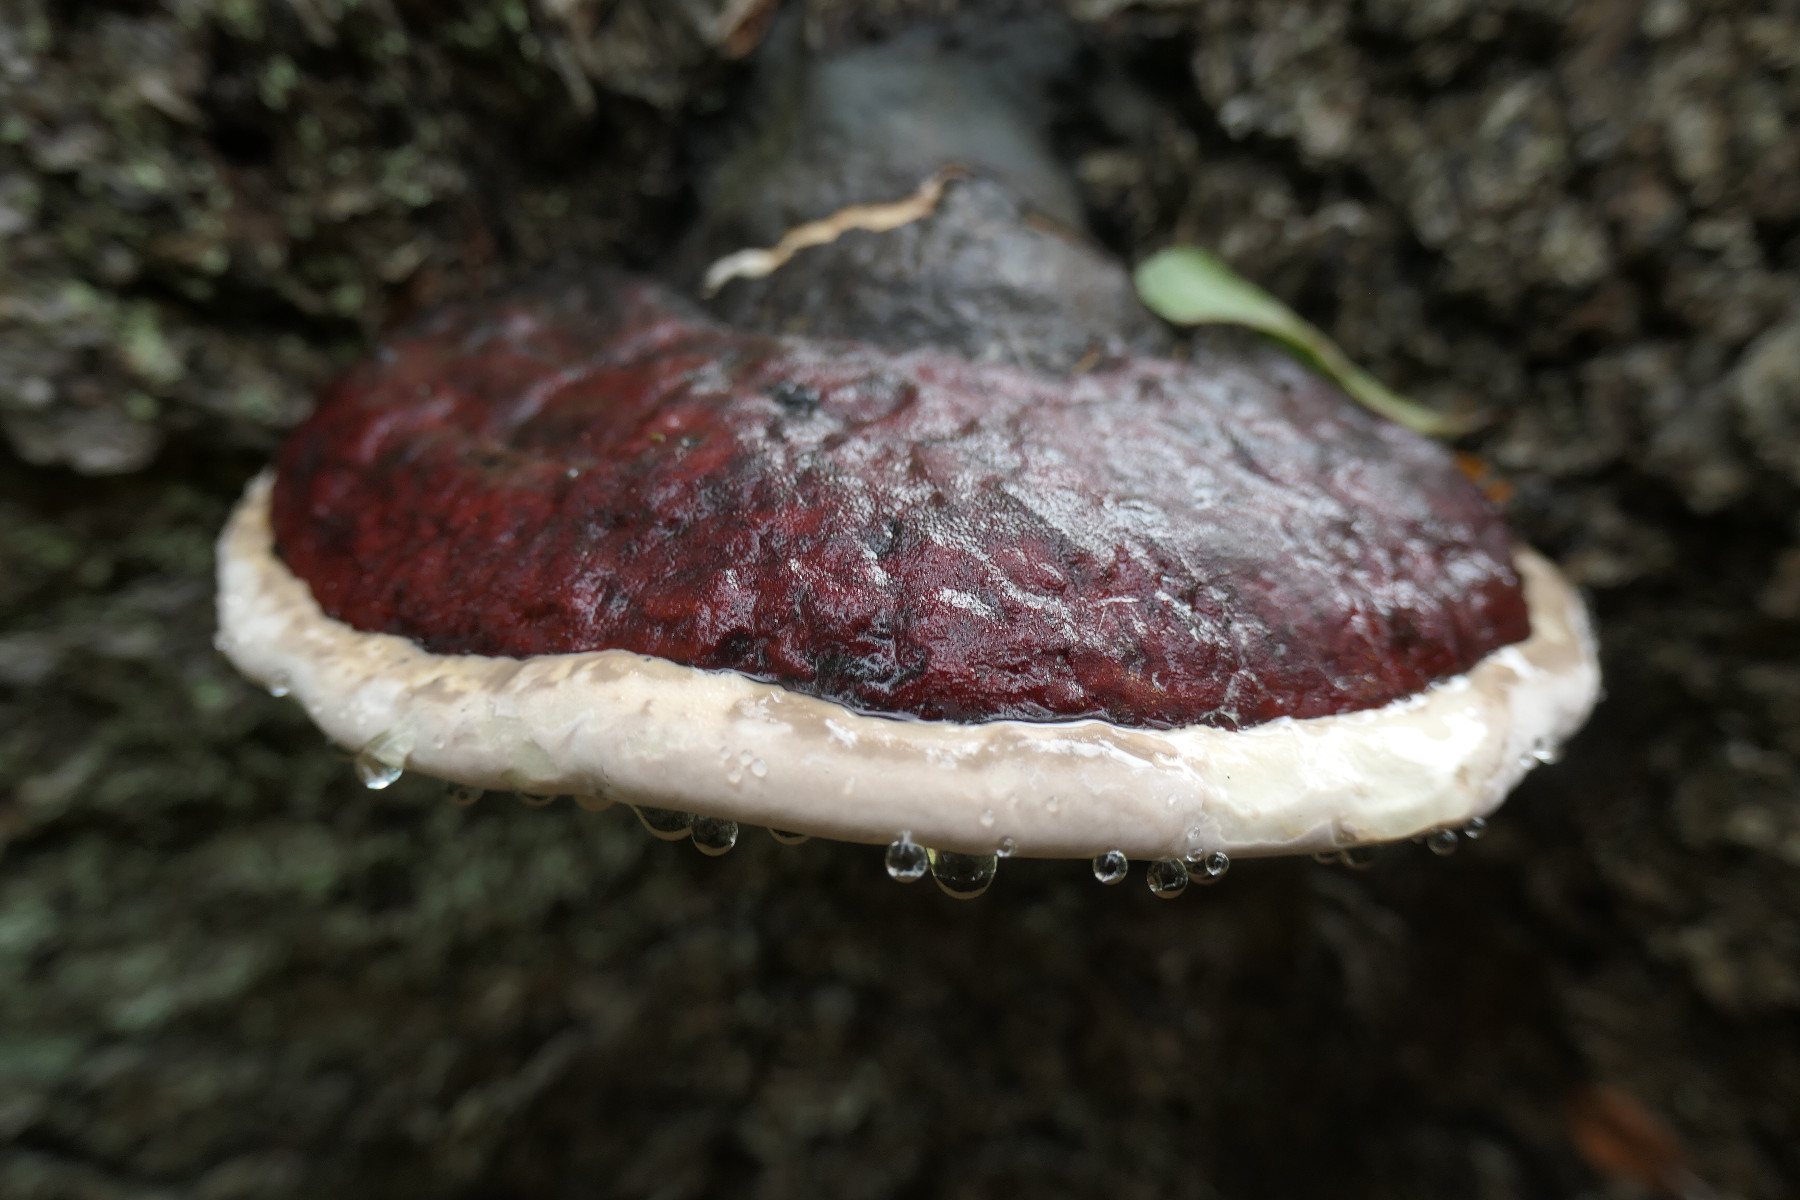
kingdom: Fungi
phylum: Basidiomycota
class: Agaricomycetes
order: Polyporales
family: Fomitopsidaceae
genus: Fomitopsis
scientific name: Fomitopsis pinicola
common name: randbæltet hovporesvamp
